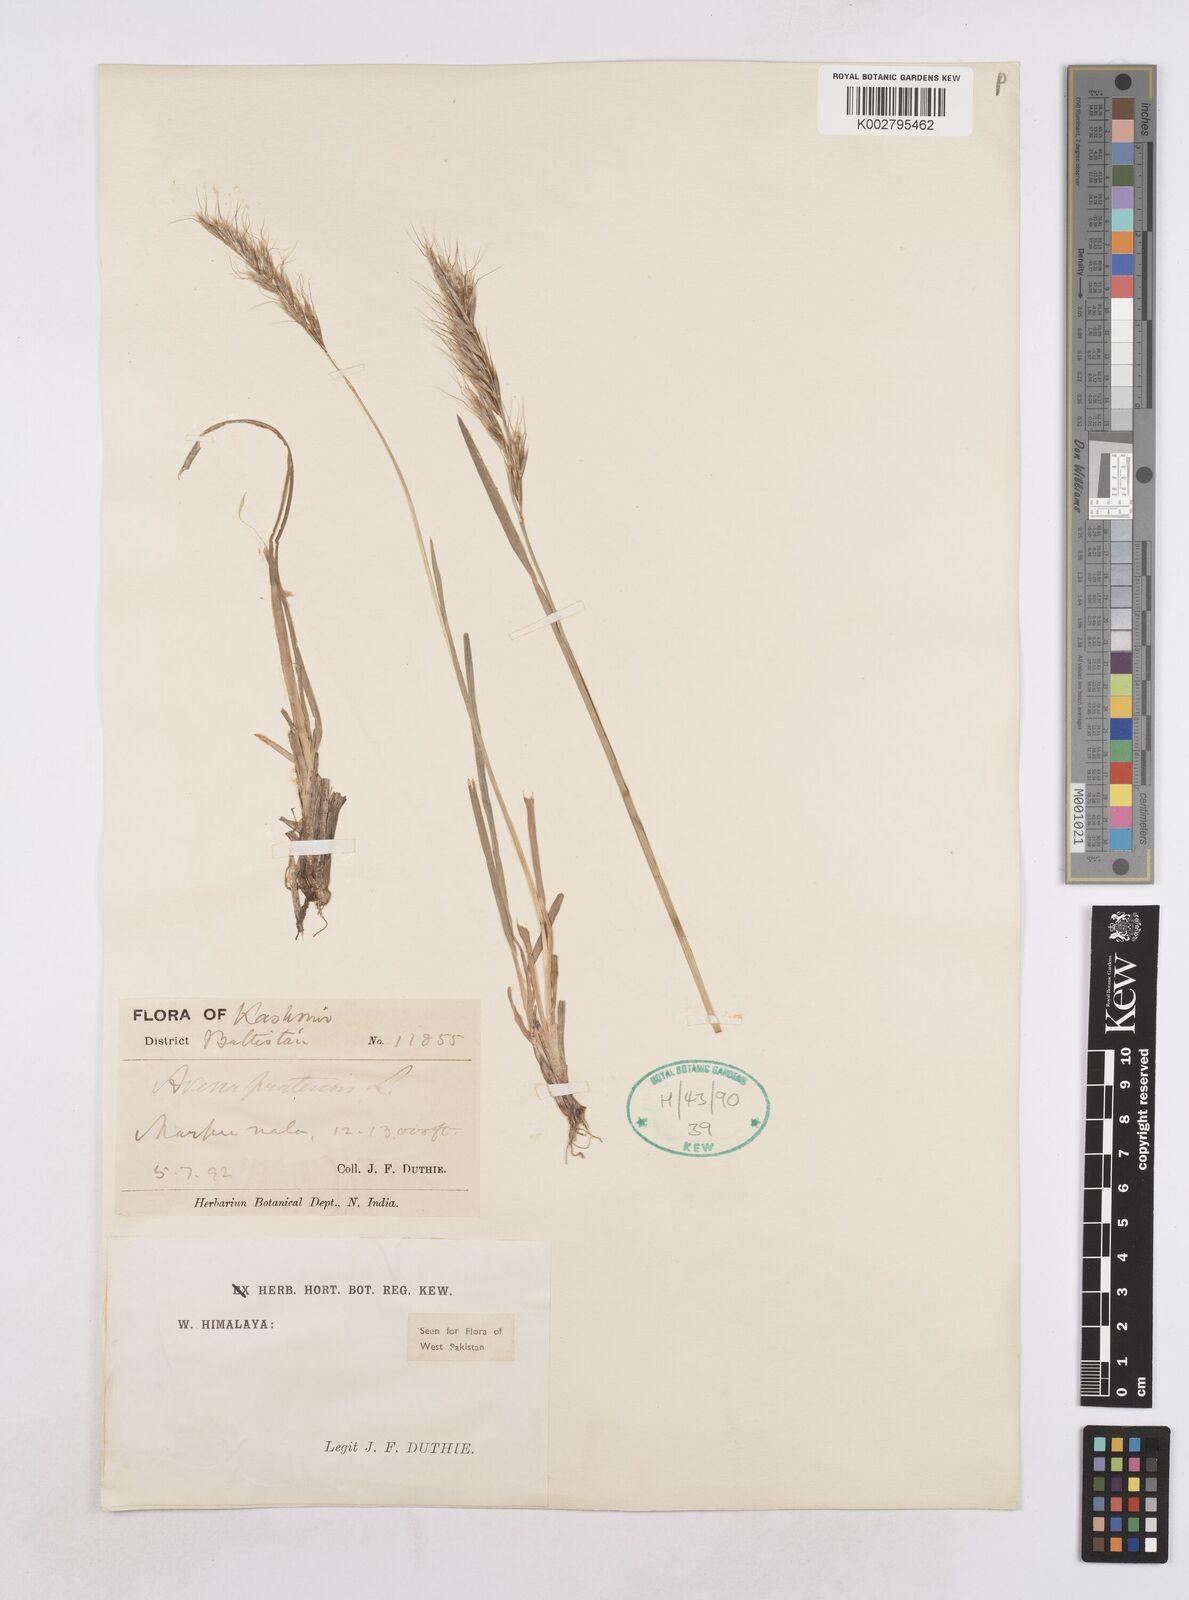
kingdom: Plantae
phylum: Tracheophyta
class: Liliopsida
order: Poales
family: Poaceae
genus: Helictochloa
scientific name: Helictochloa pratensis
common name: Meadow oat grass
